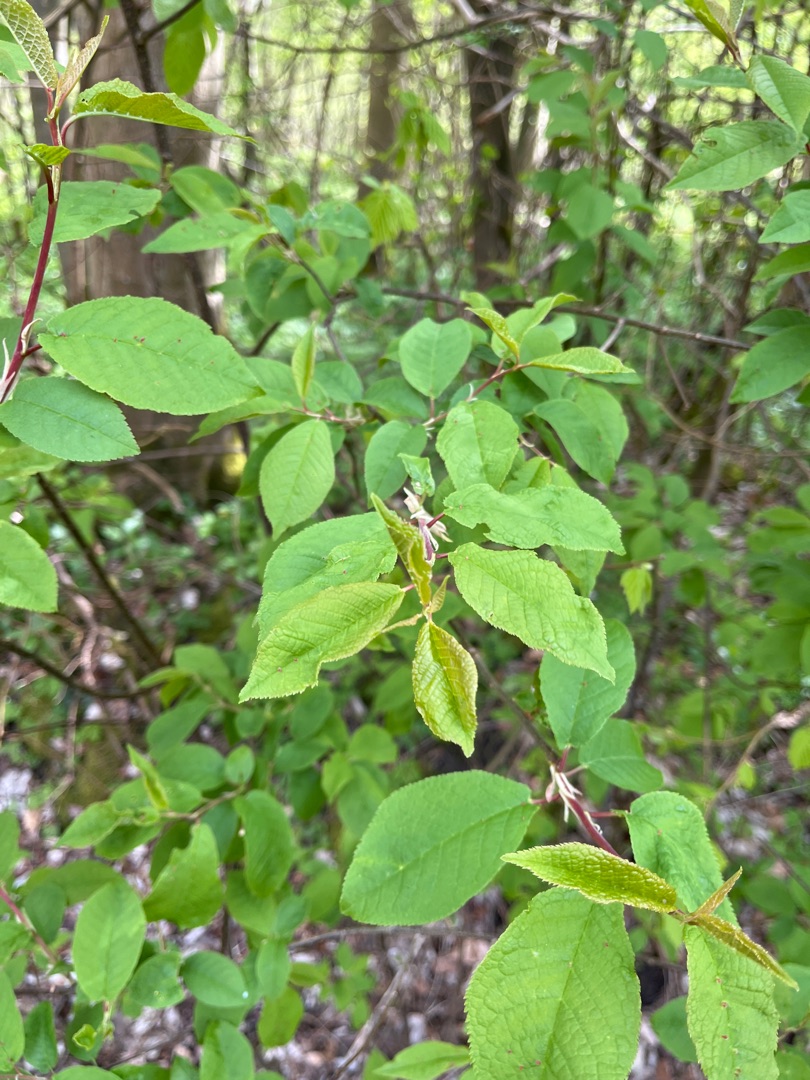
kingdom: Plantae
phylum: Tracheophyta
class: Magnoliopsida
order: Rosales
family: Rosaceae
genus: Prunus
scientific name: Prunus padus
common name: Almindelig hæg
